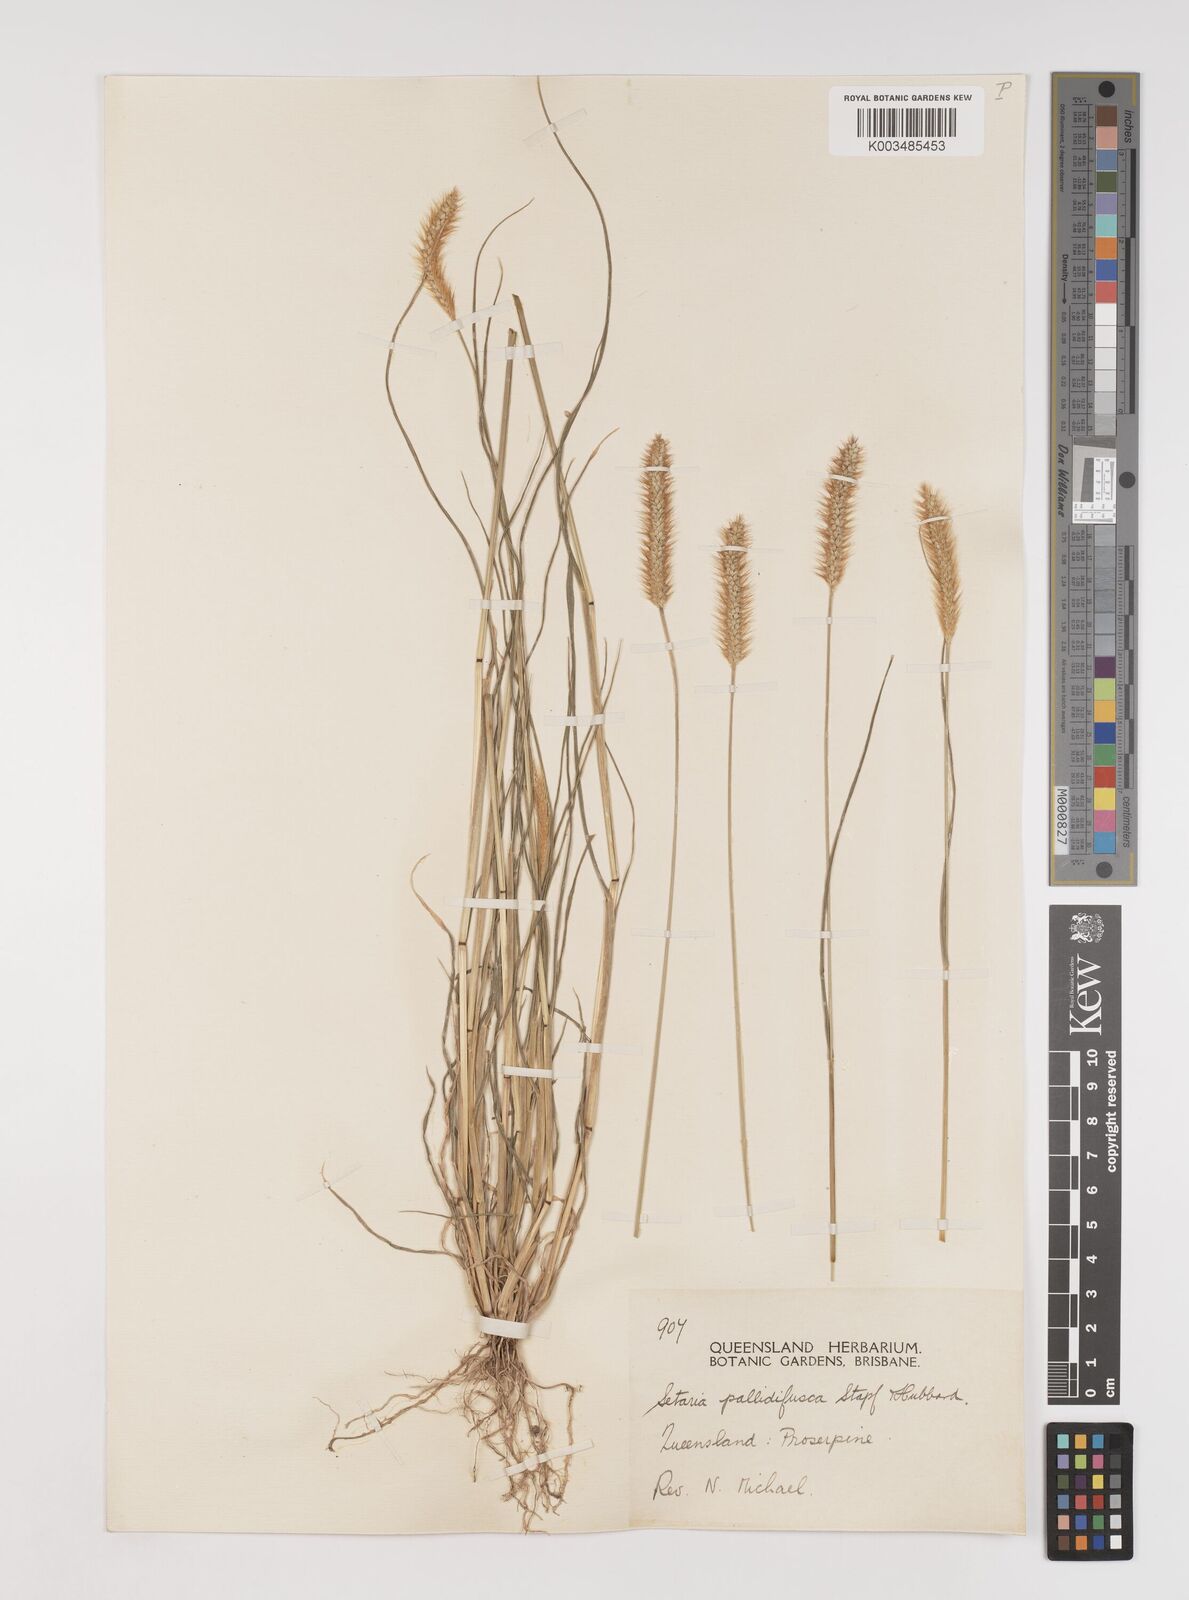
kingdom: Plantae
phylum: Tracheophyta
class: Liliopsida
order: Poales
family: Poaceae
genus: Setaria
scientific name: Setaria pumila
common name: Yellow bristle-grass
